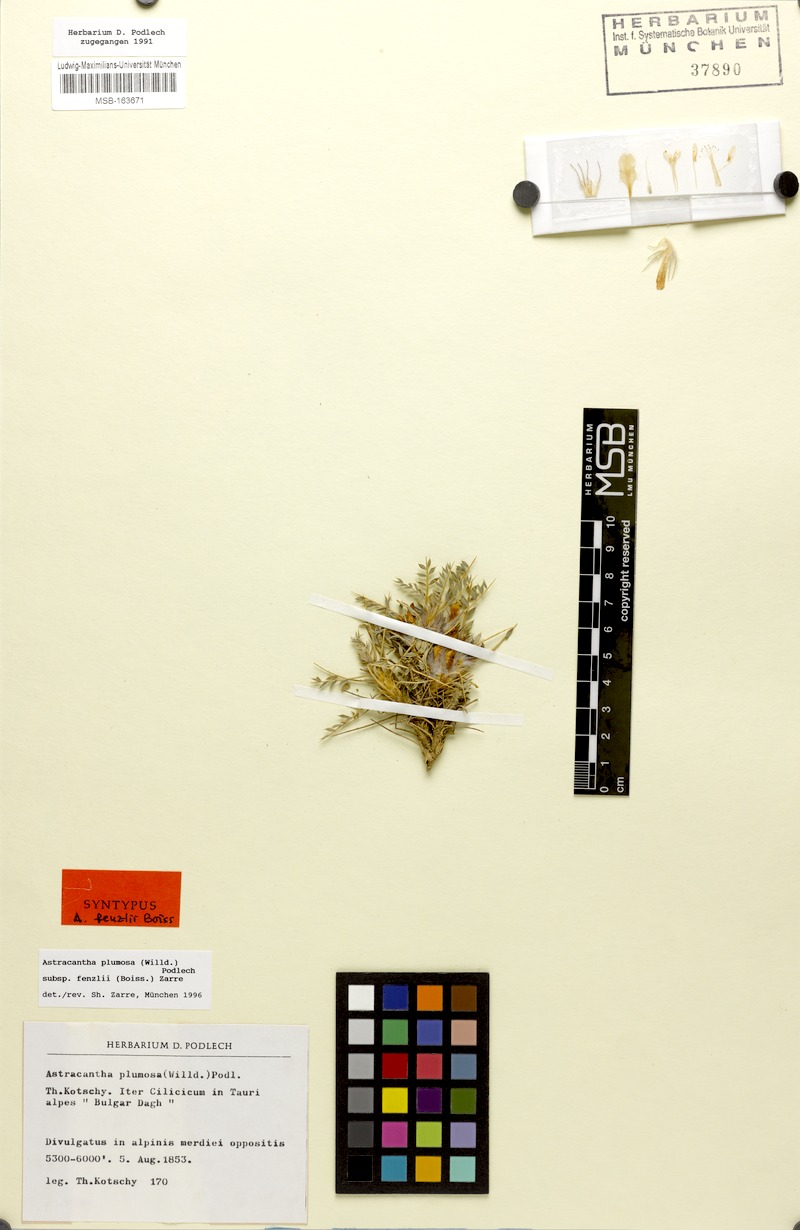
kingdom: Plantae
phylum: Tracheophyta
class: Magnoliopsida
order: Fabales
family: Fabaceae
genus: Astragalus
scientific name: Astragalus plumosus
